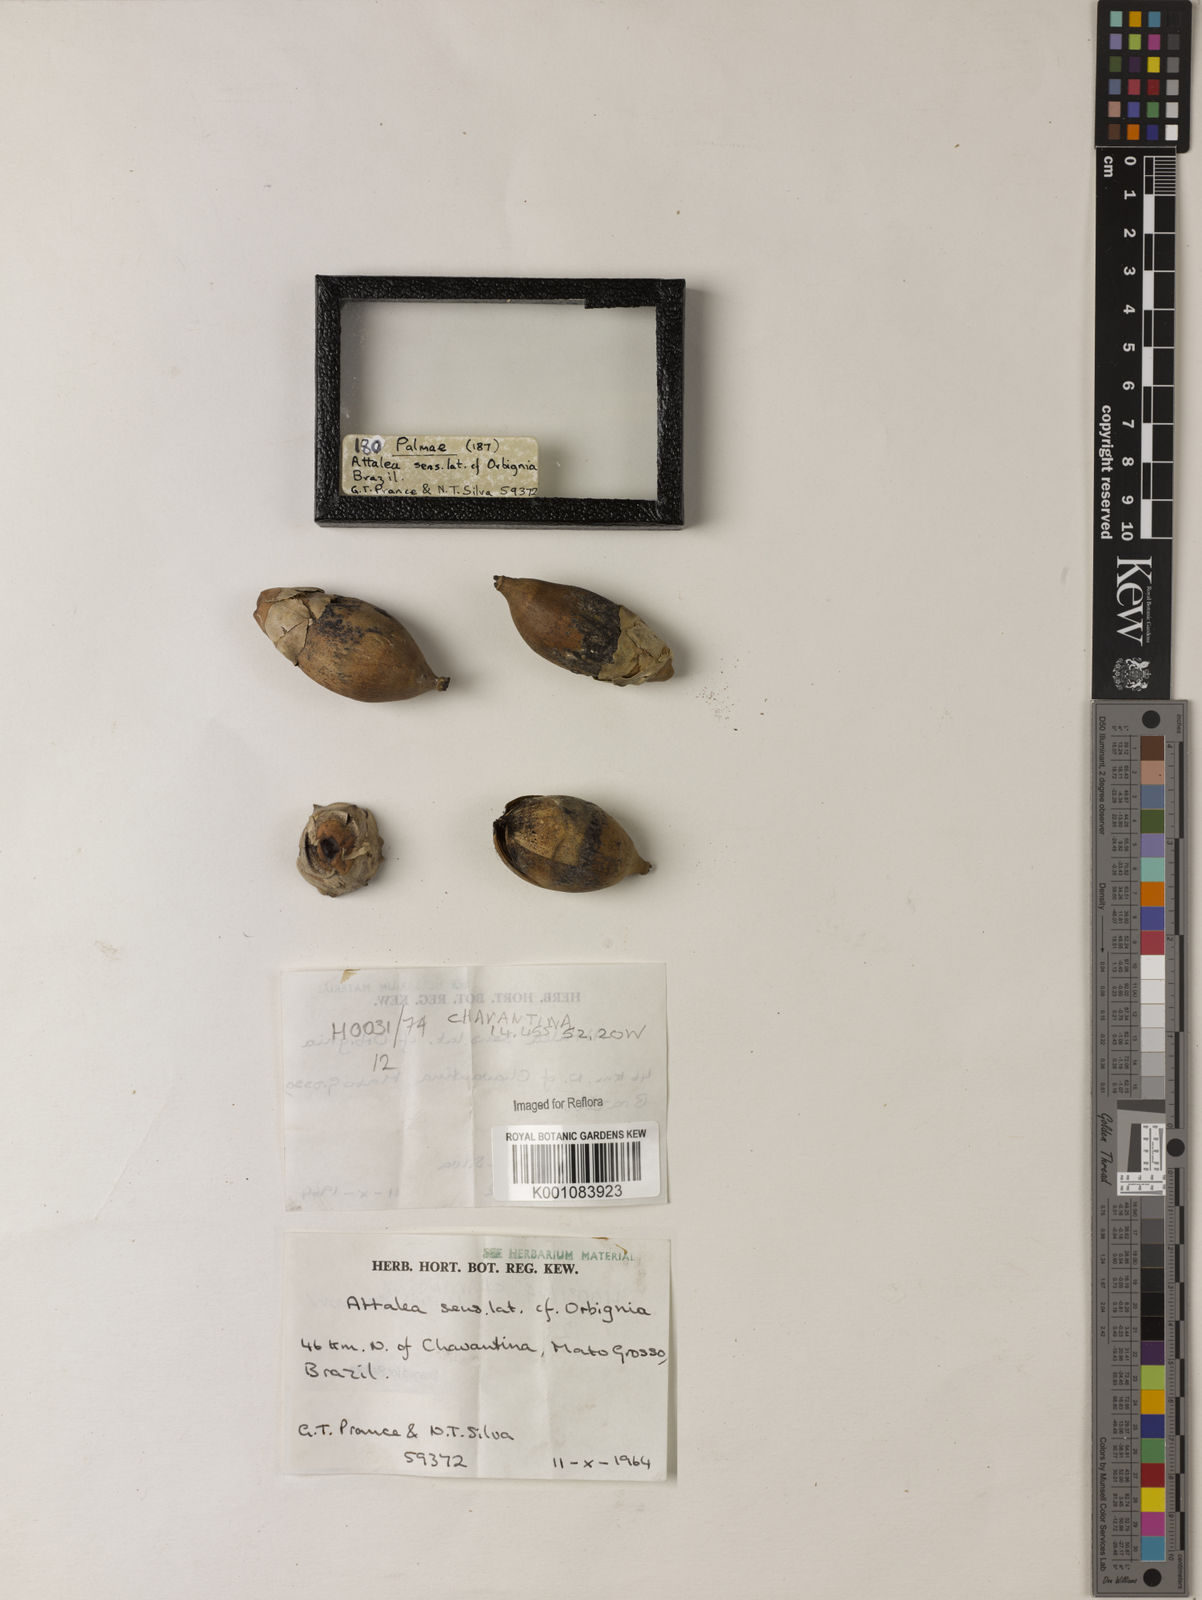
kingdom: Plantae
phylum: Tracheophyta
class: Liliopsida
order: Arecales
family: Arecaceae
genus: Attalea
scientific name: Attalea
